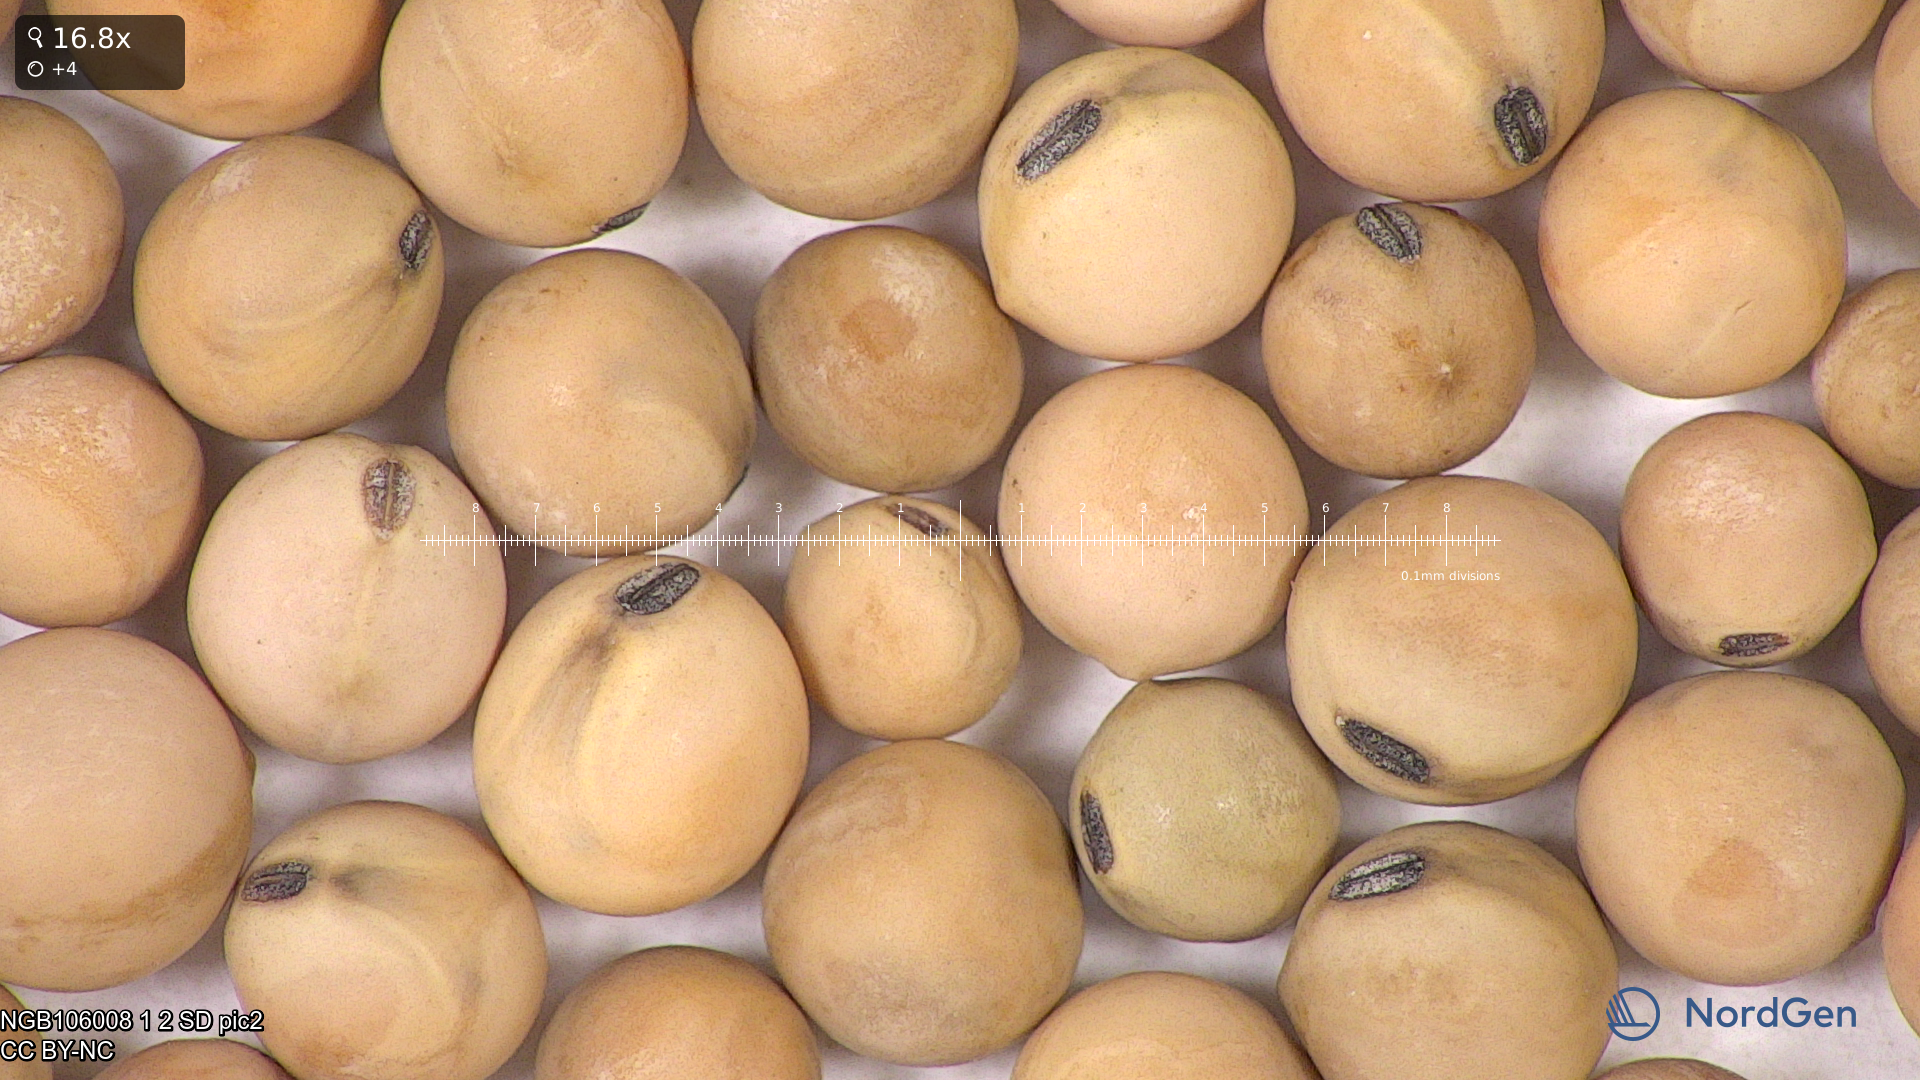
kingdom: Plantae
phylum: Tracheophyta
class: Magnoliopsida
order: Fabales
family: Fabaceae
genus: Lathyrus
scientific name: Lathyrus oleraceus
